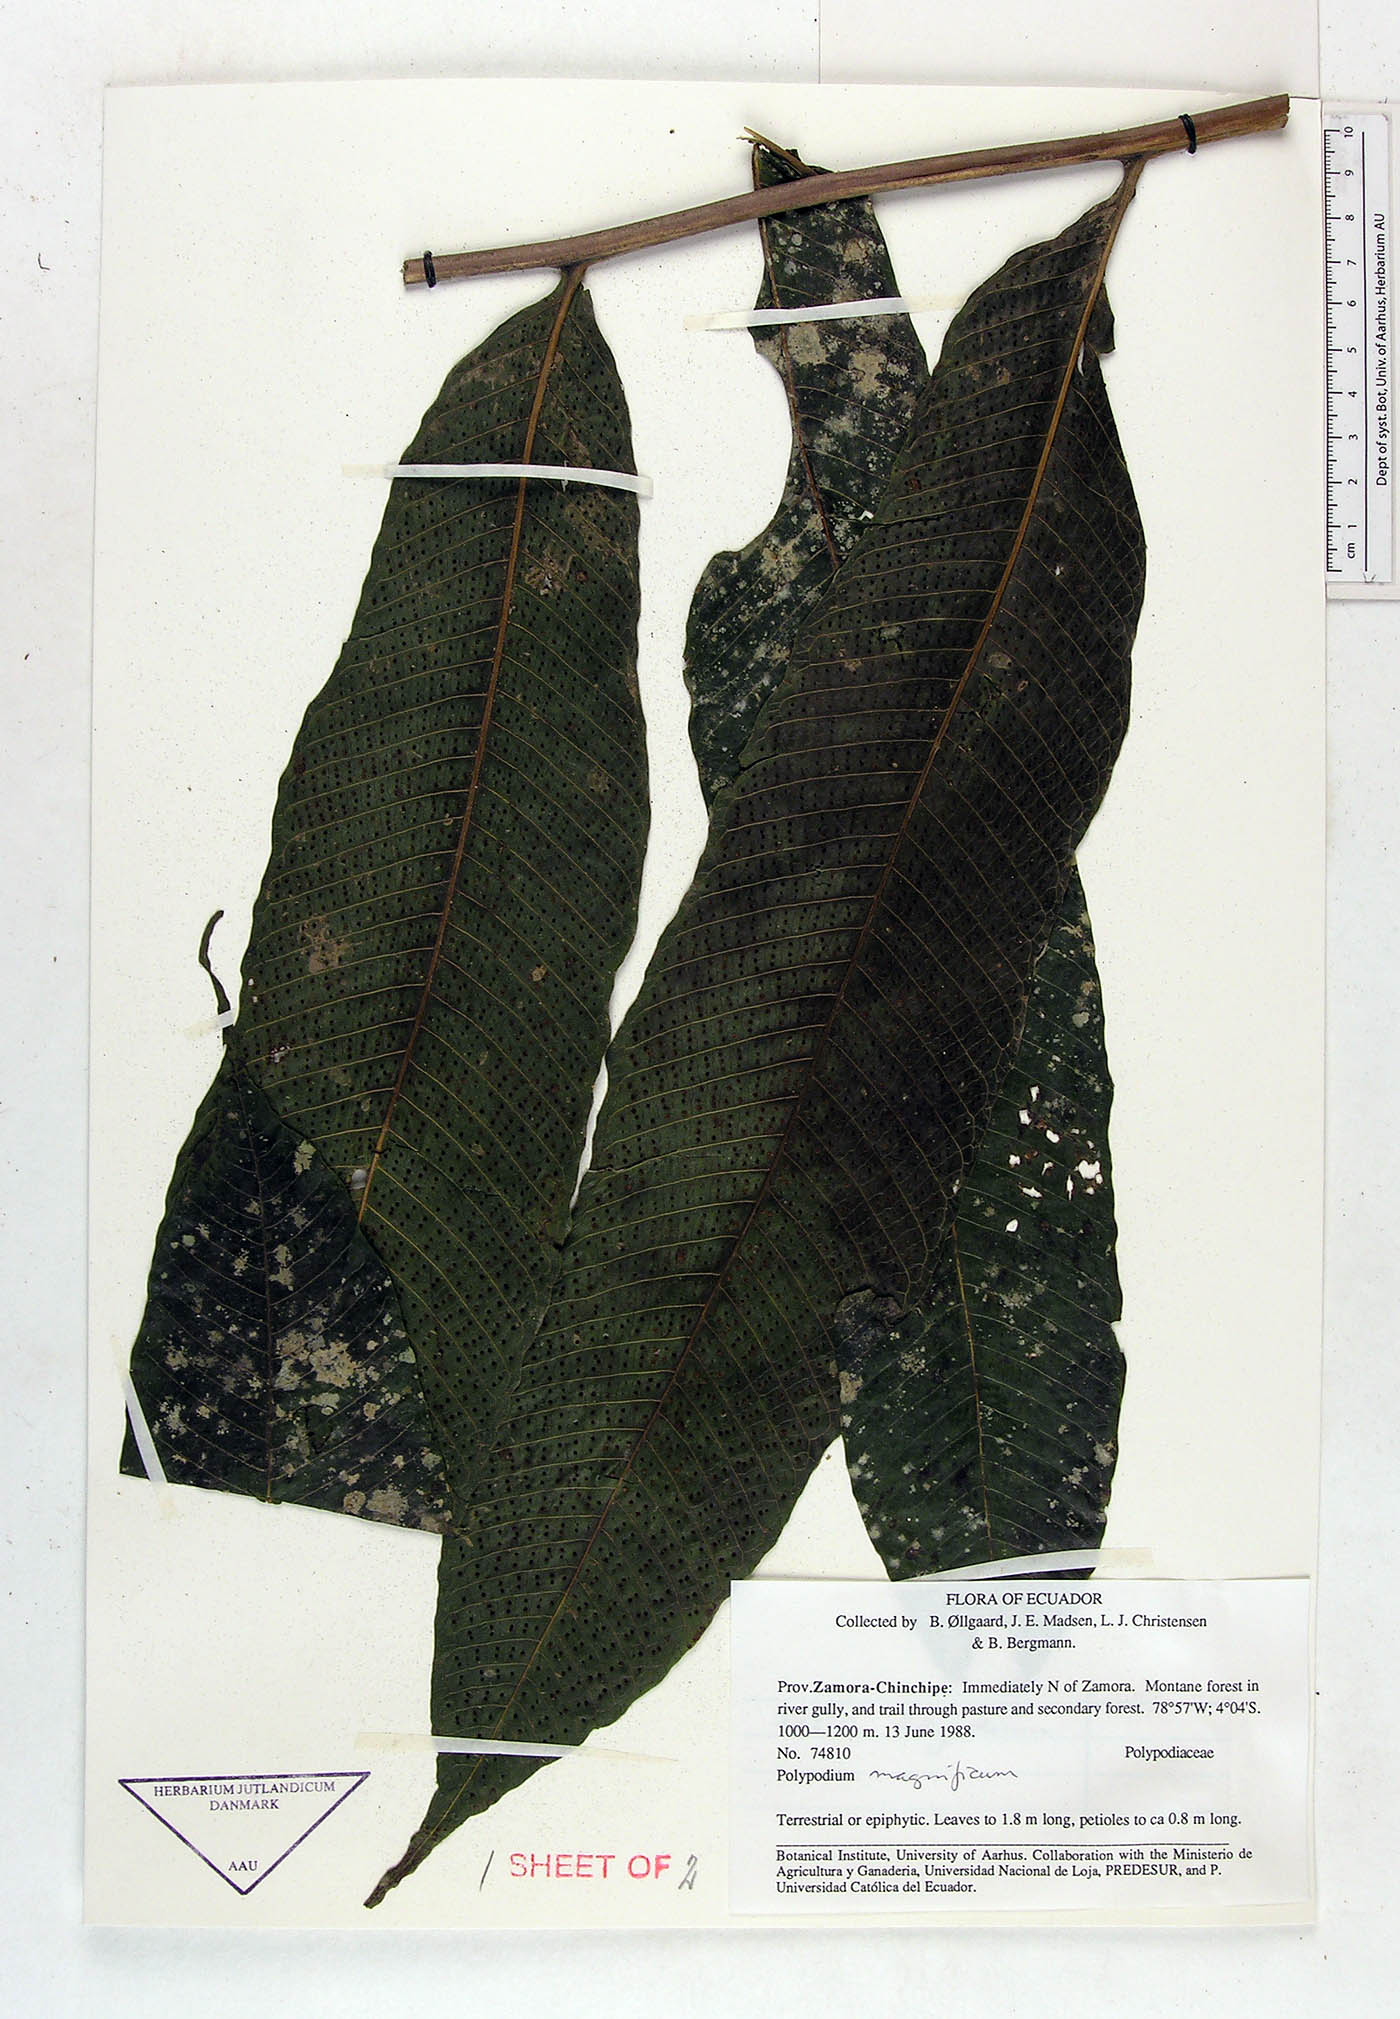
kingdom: Plantae
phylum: Tracheophyta
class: Polypodiopsida
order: Polypodiales
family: Polypodiaceae
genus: Campyloneurum
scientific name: Campyloneurum magnificum
